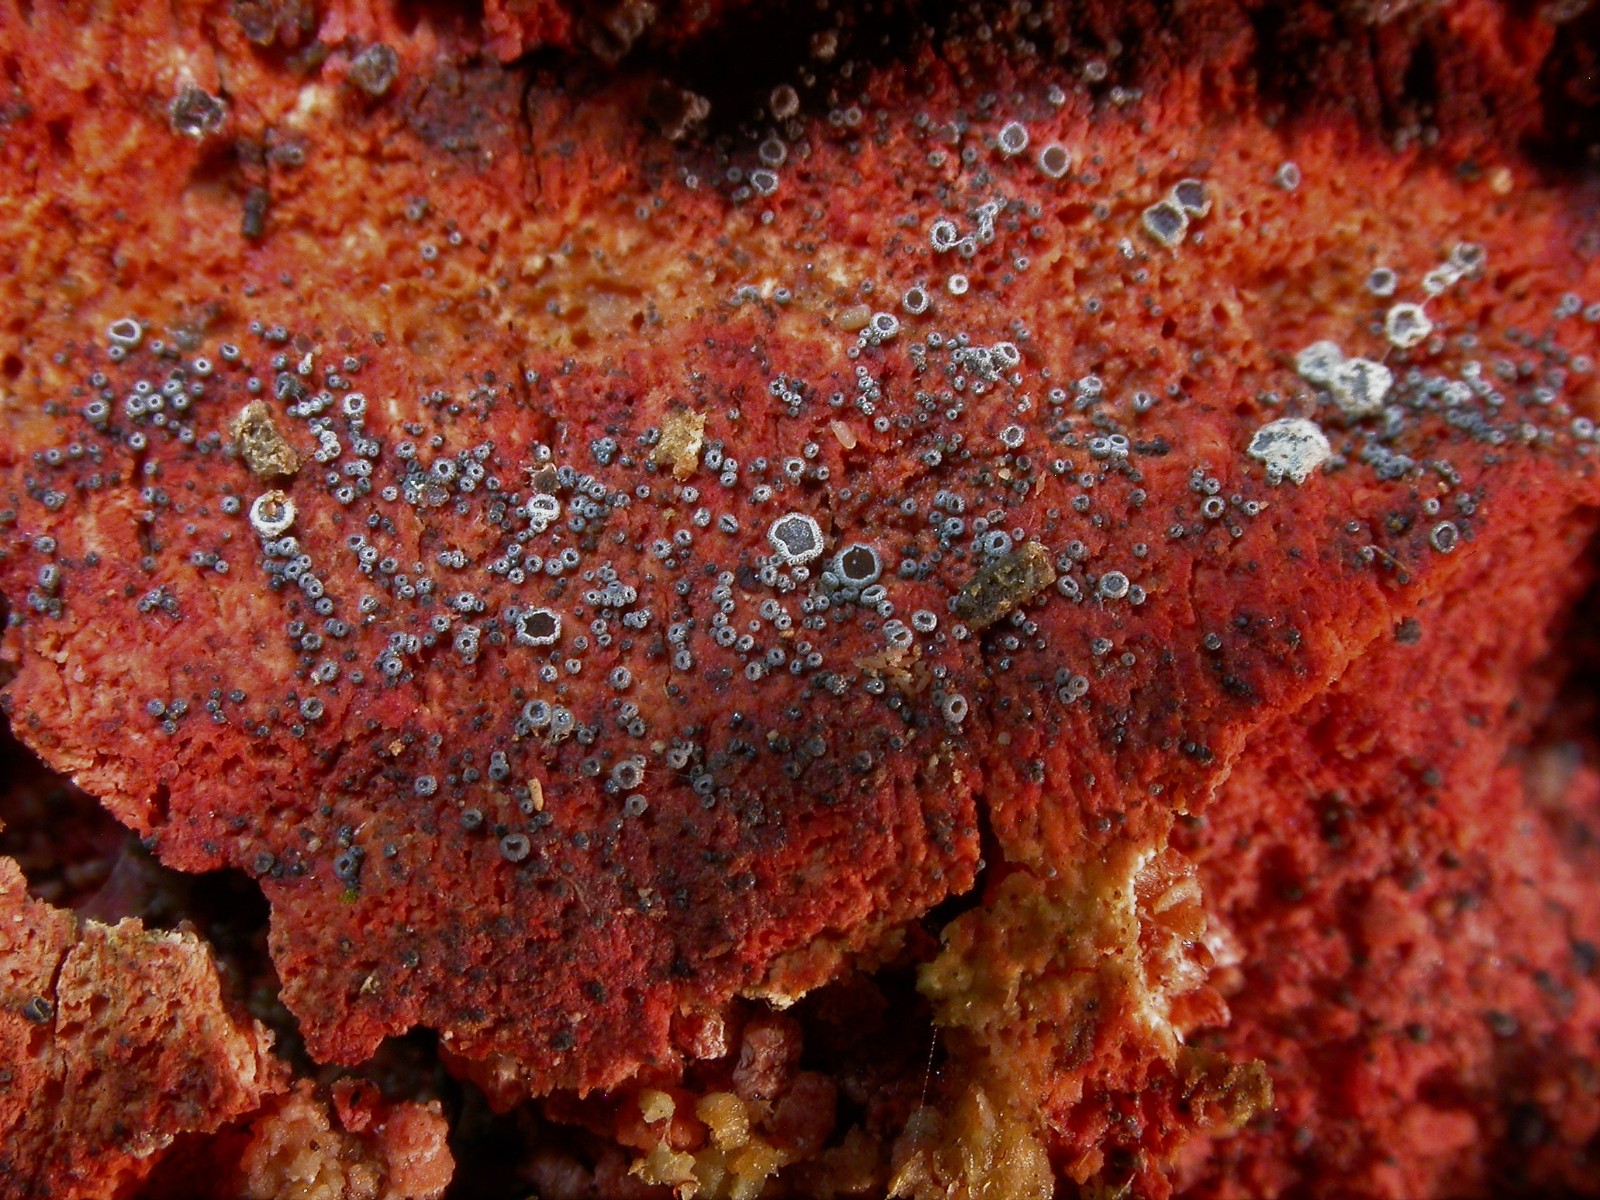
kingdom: Fungi
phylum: Ascomycota
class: Leotiomycetes
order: Helotiales
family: Hyphodiscaceae
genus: Hyphodiscus
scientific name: Hyphodiscus hymeniophilus
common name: snyltende sirskive
